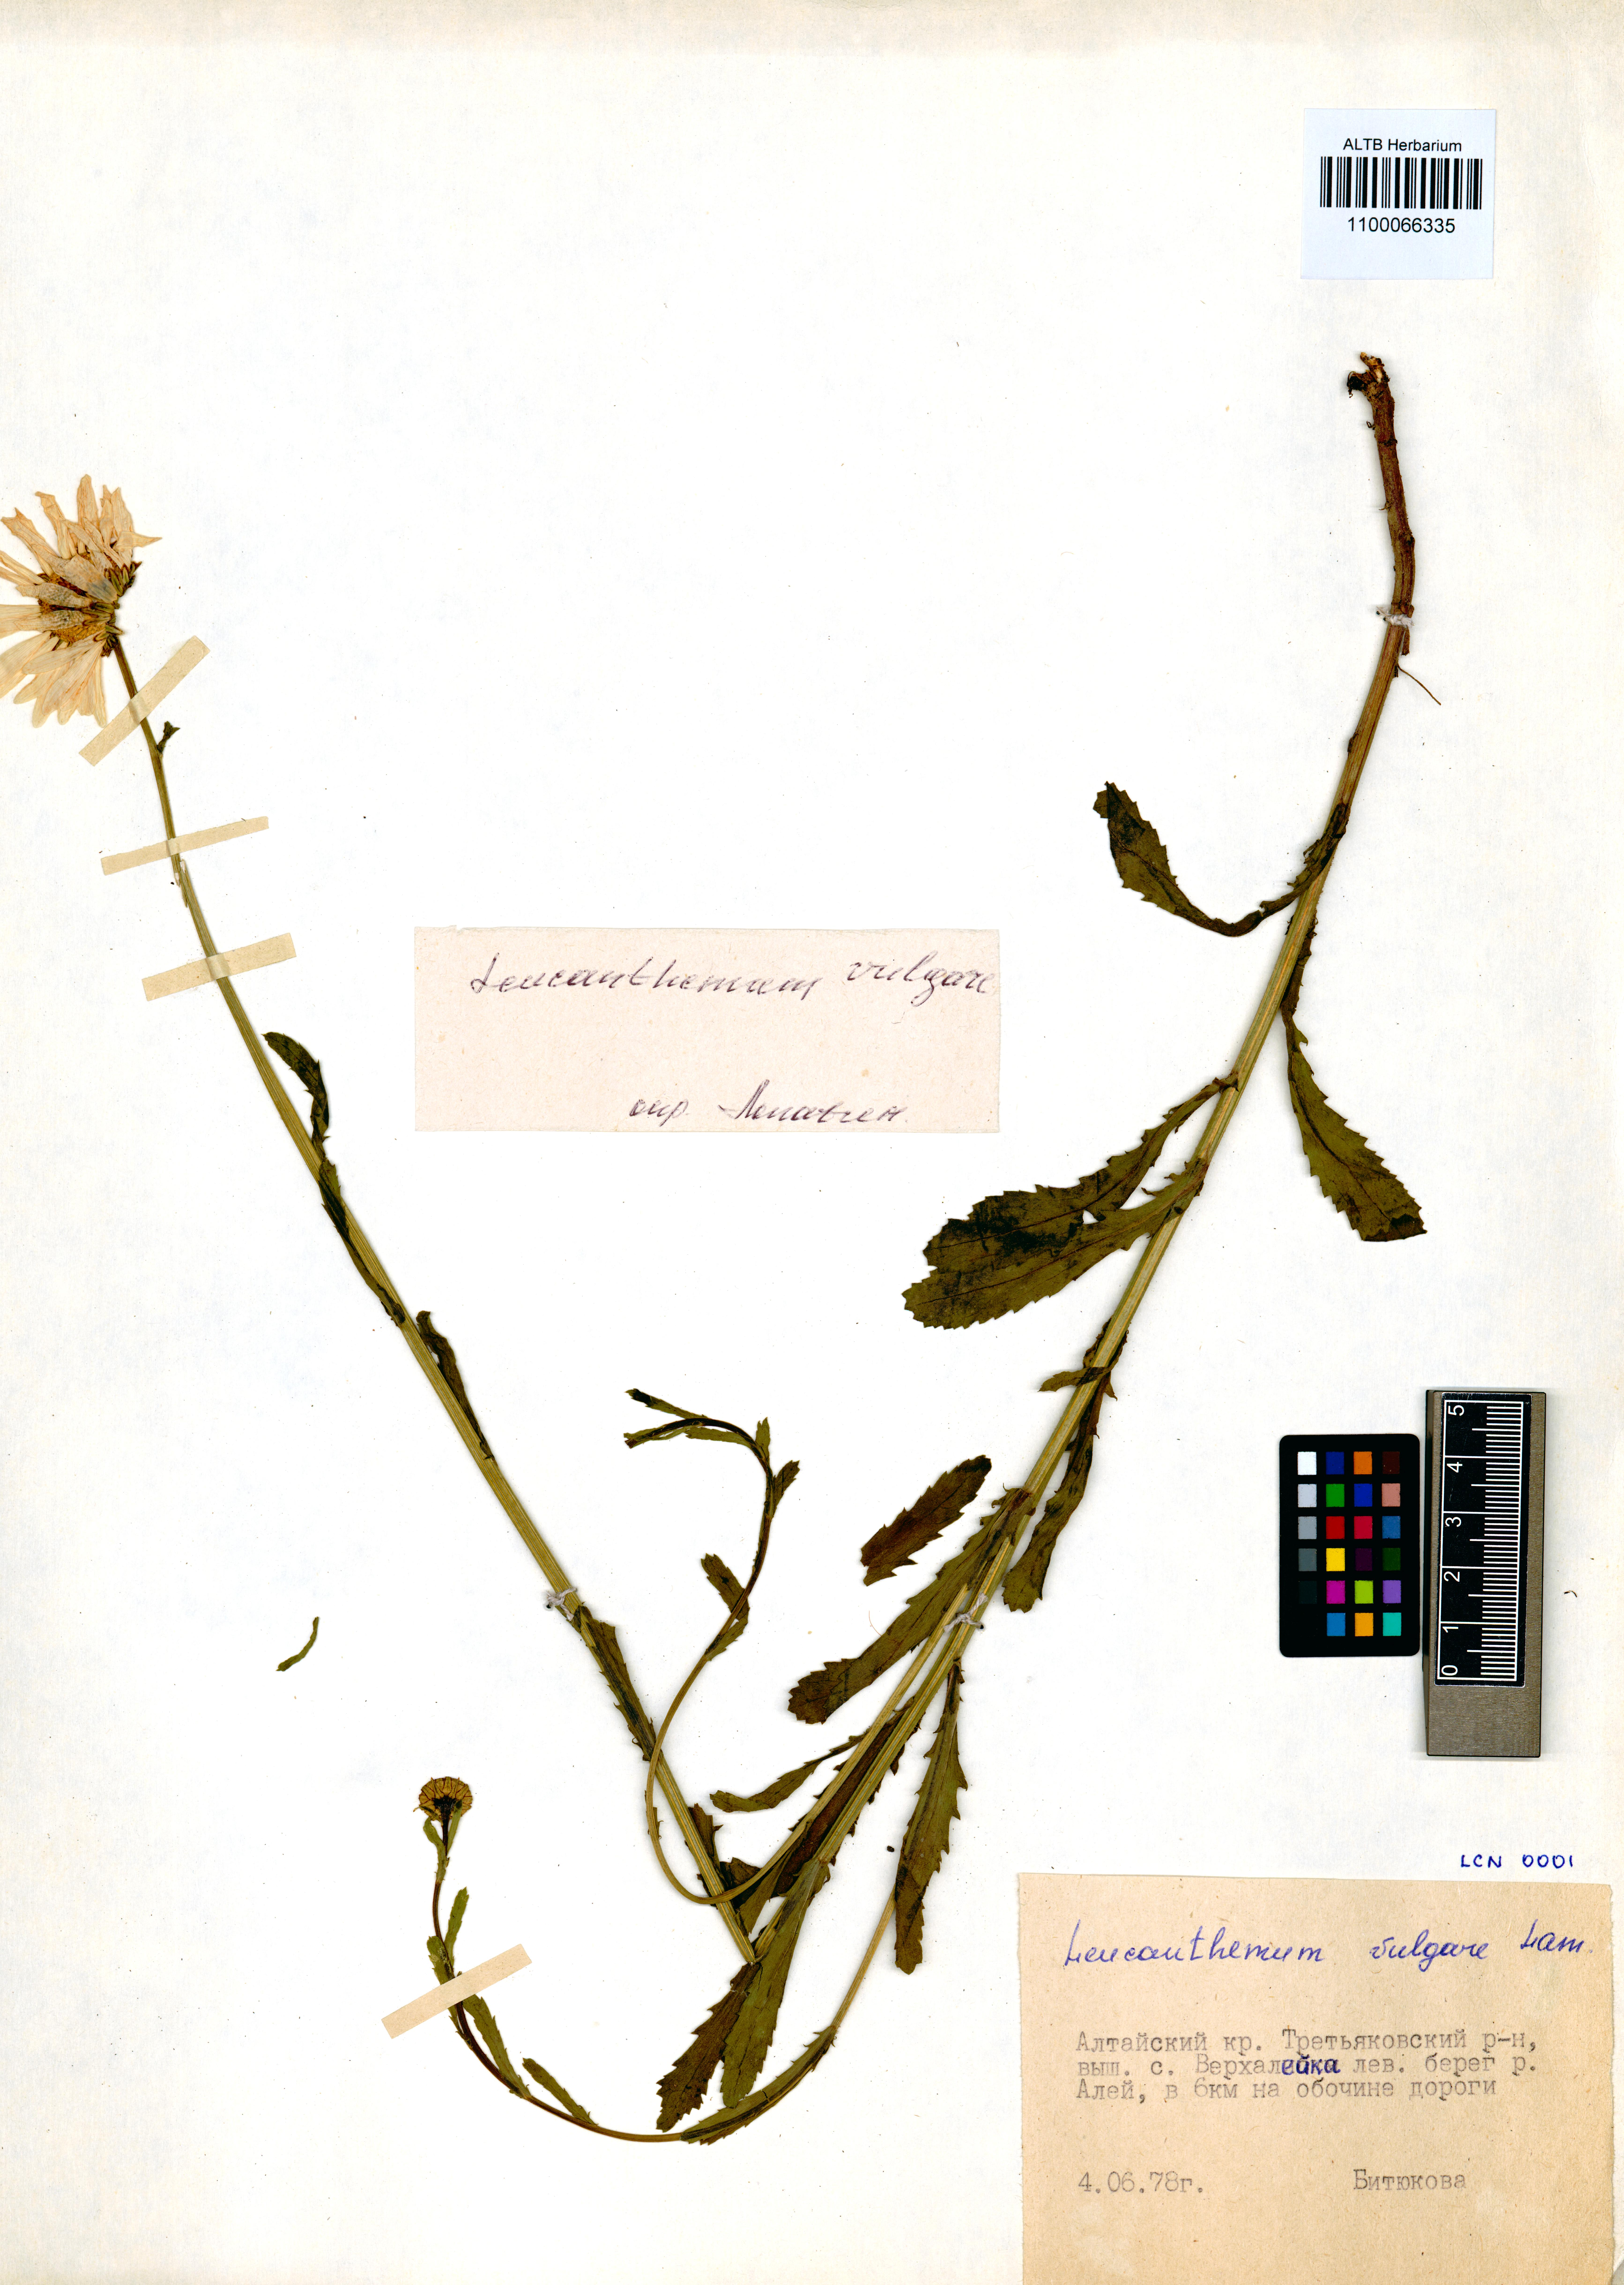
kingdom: Plantae
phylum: Tracheophyta
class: Magnoliopsida
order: Asterales
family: Asteraceae
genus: Leucanthemum
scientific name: Leucanthemum vulgare
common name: Oxeye daisy
